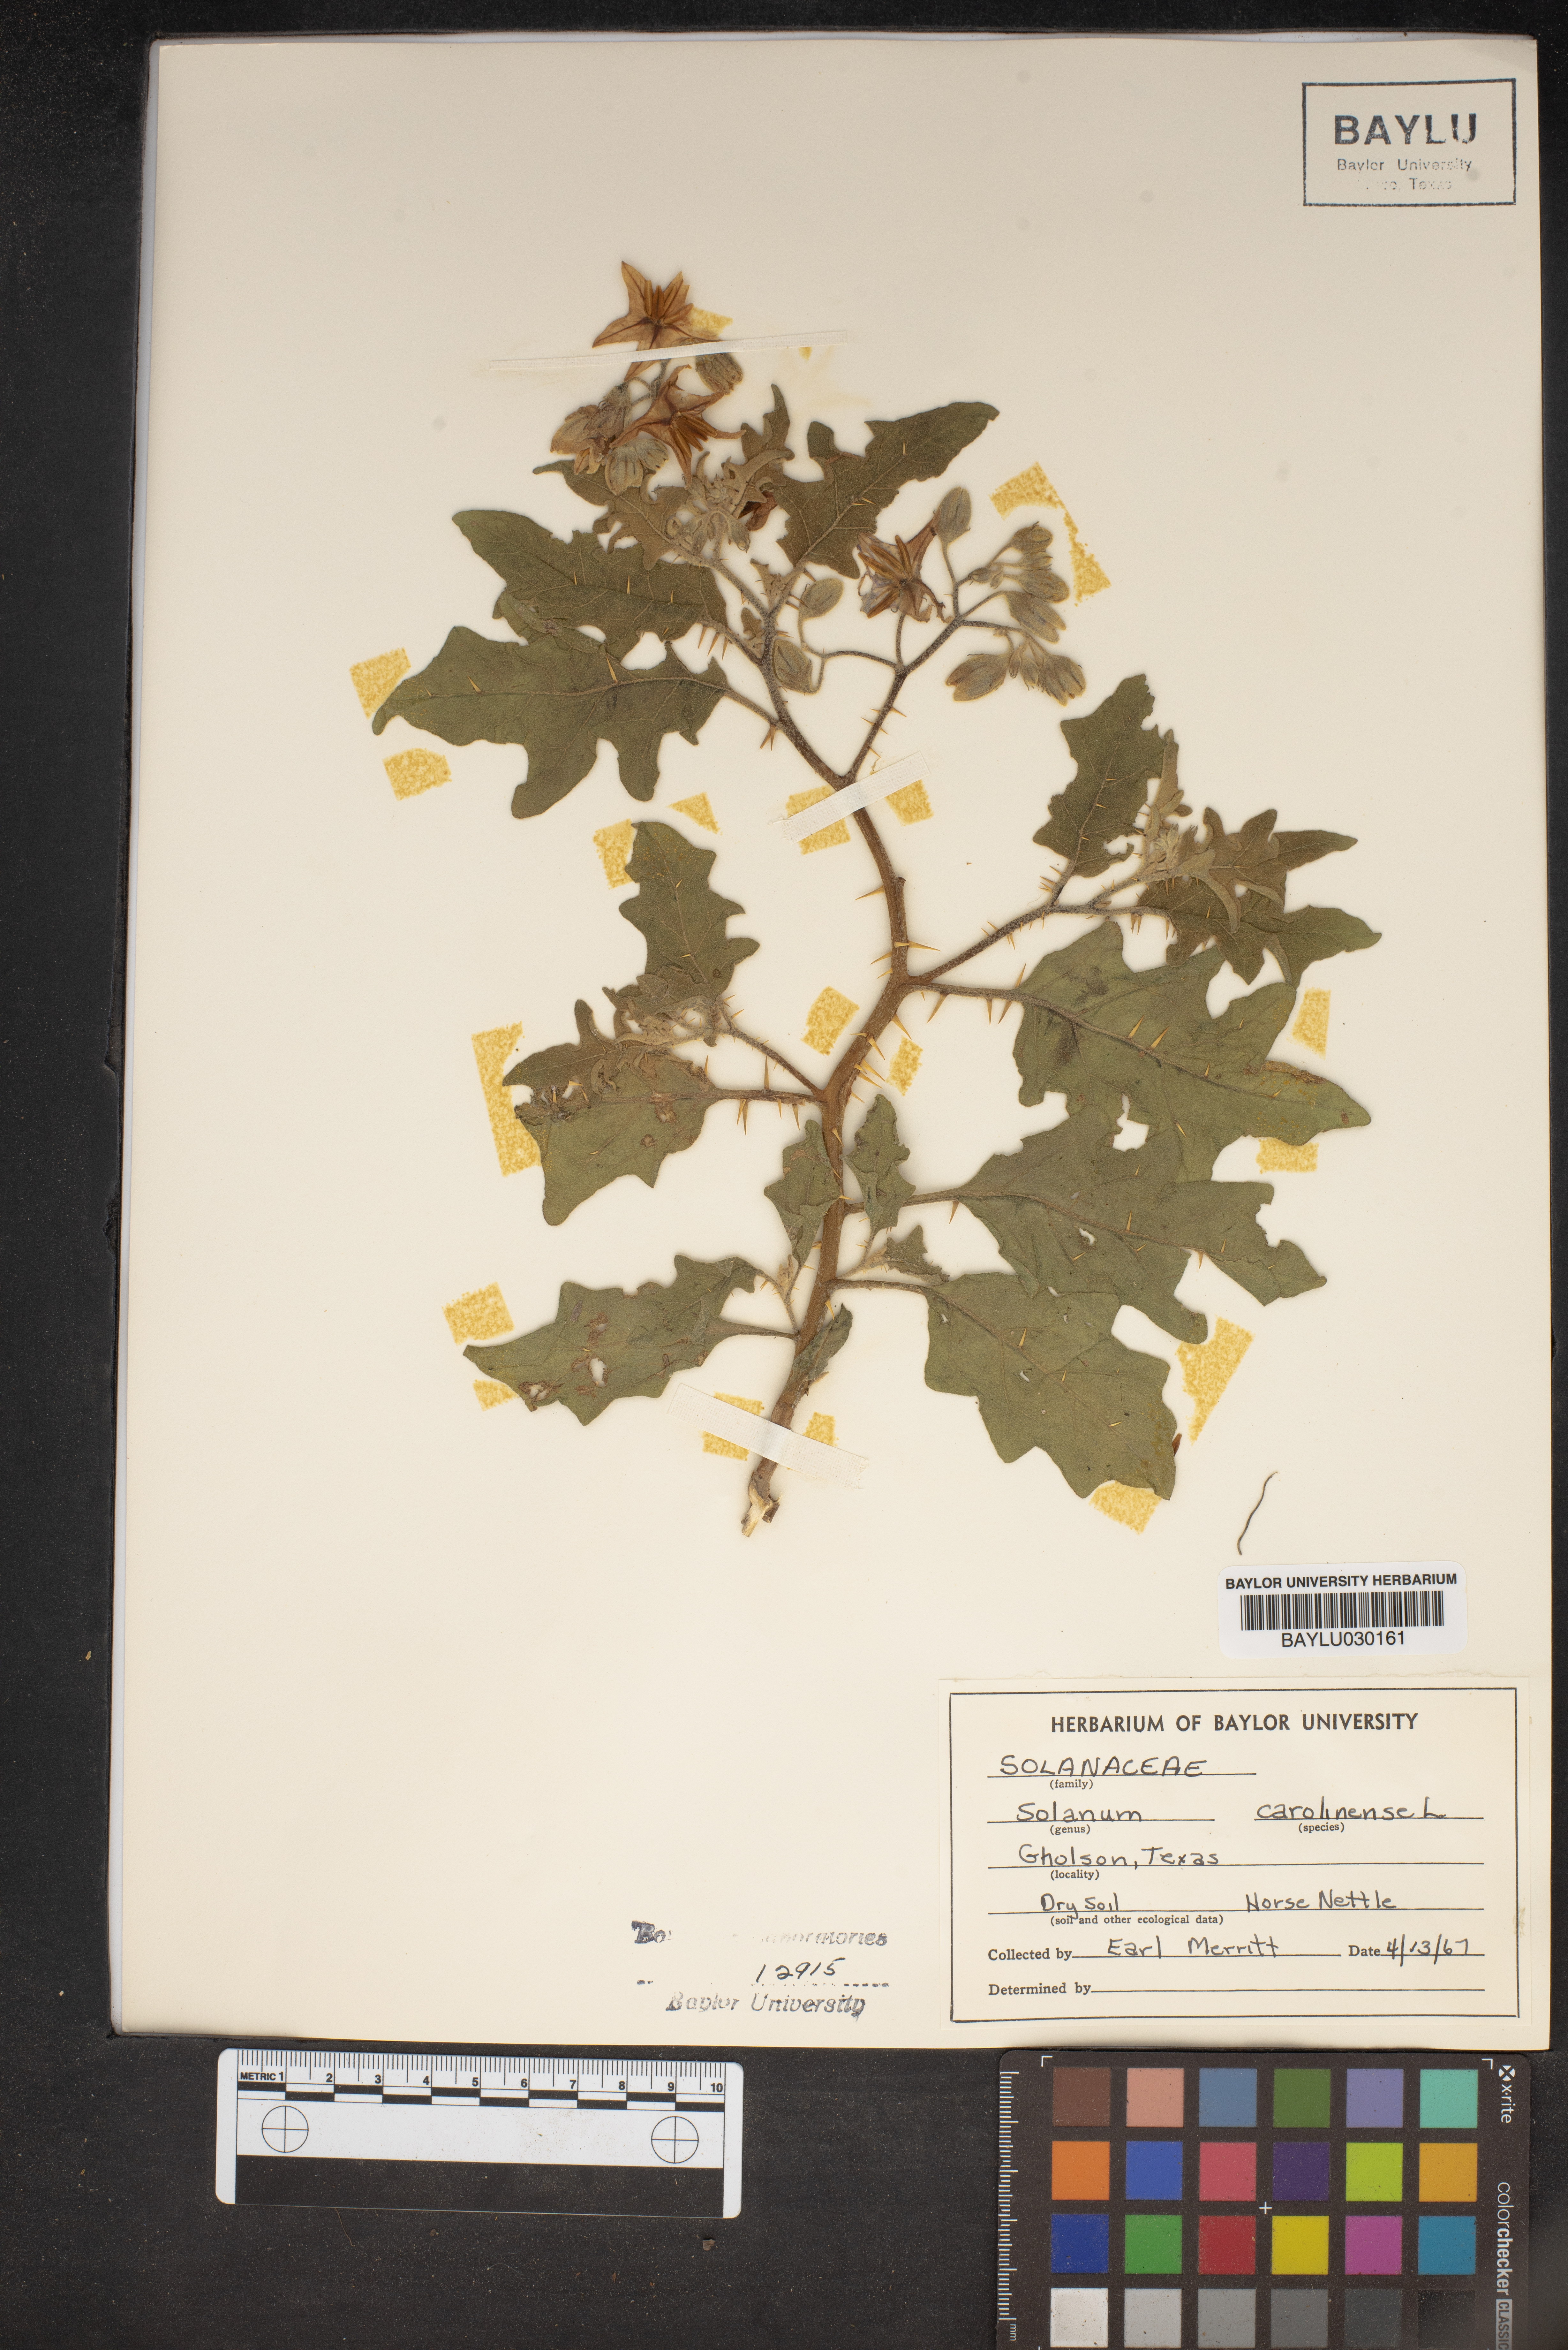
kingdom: Plantae
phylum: Tracheophyta
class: Magnoliopsida
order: Solanales
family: Solanaceae
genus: Solanum
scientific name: Solanum carolinense
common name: Horse-nettle
